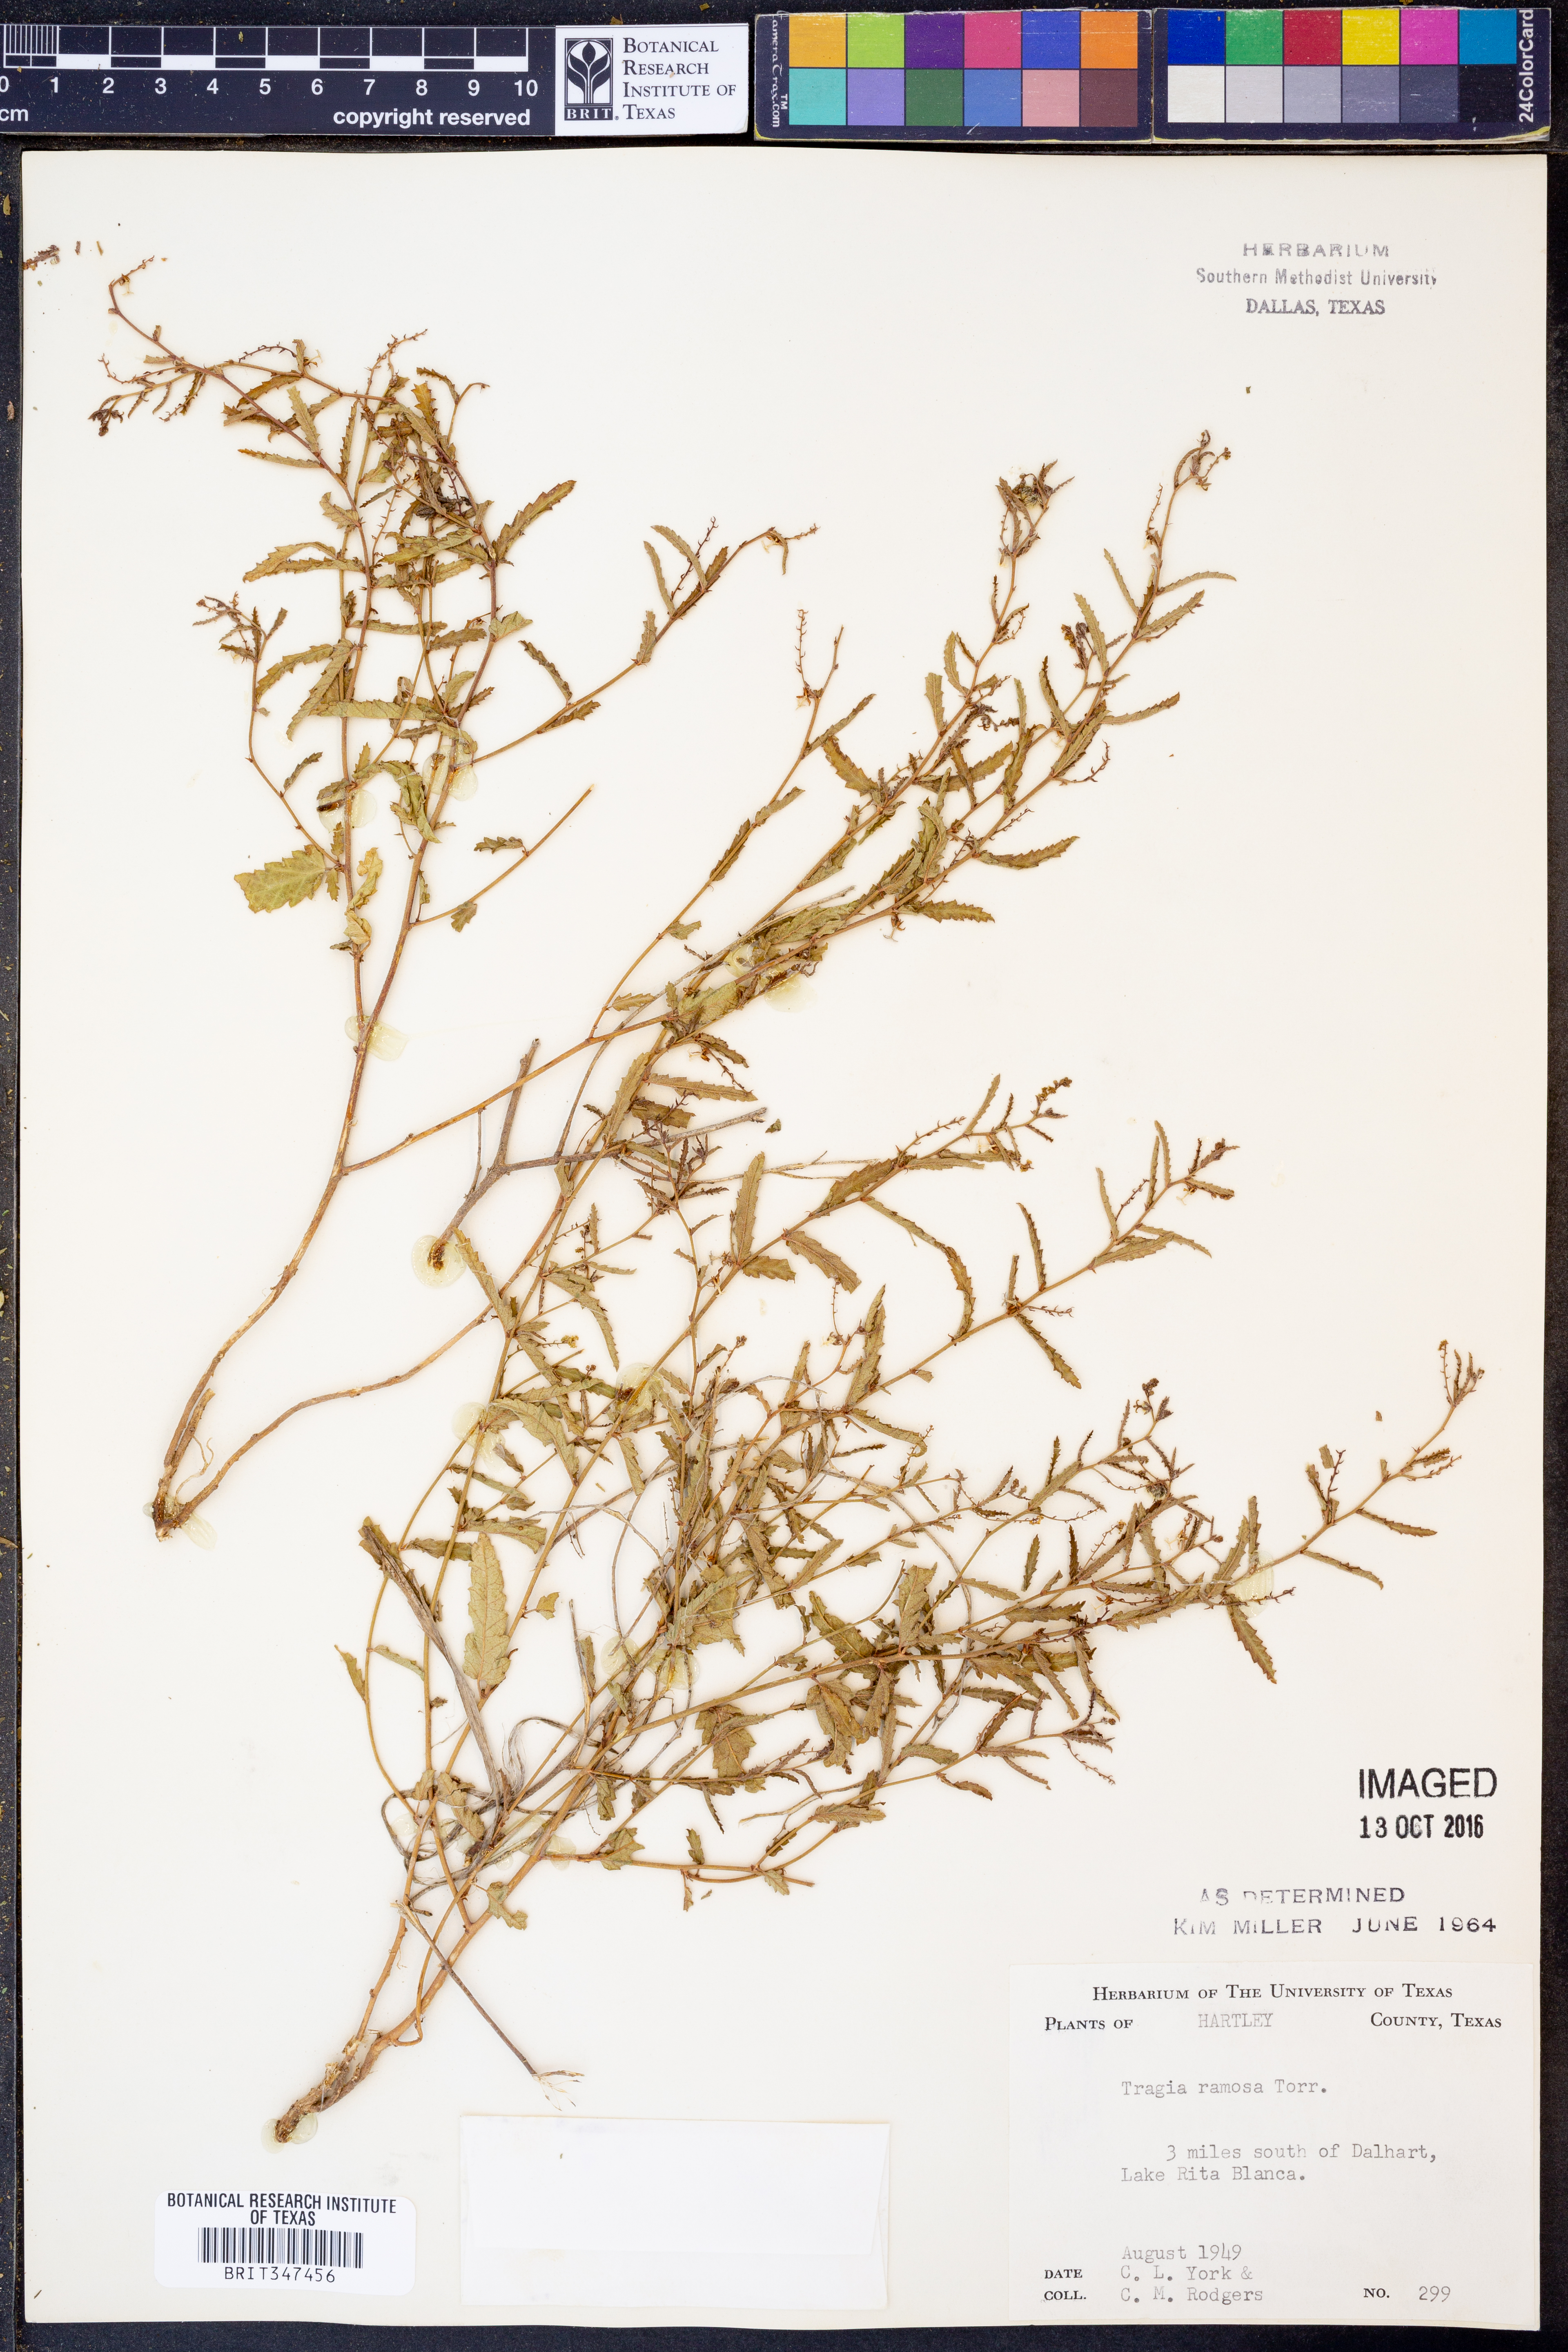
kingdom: Plantae
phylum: Tracheophyta
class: Magnoliopsida
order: Malpighiales
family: Euphorbiaceae
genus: Tragia
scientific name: Tragia ramosa
